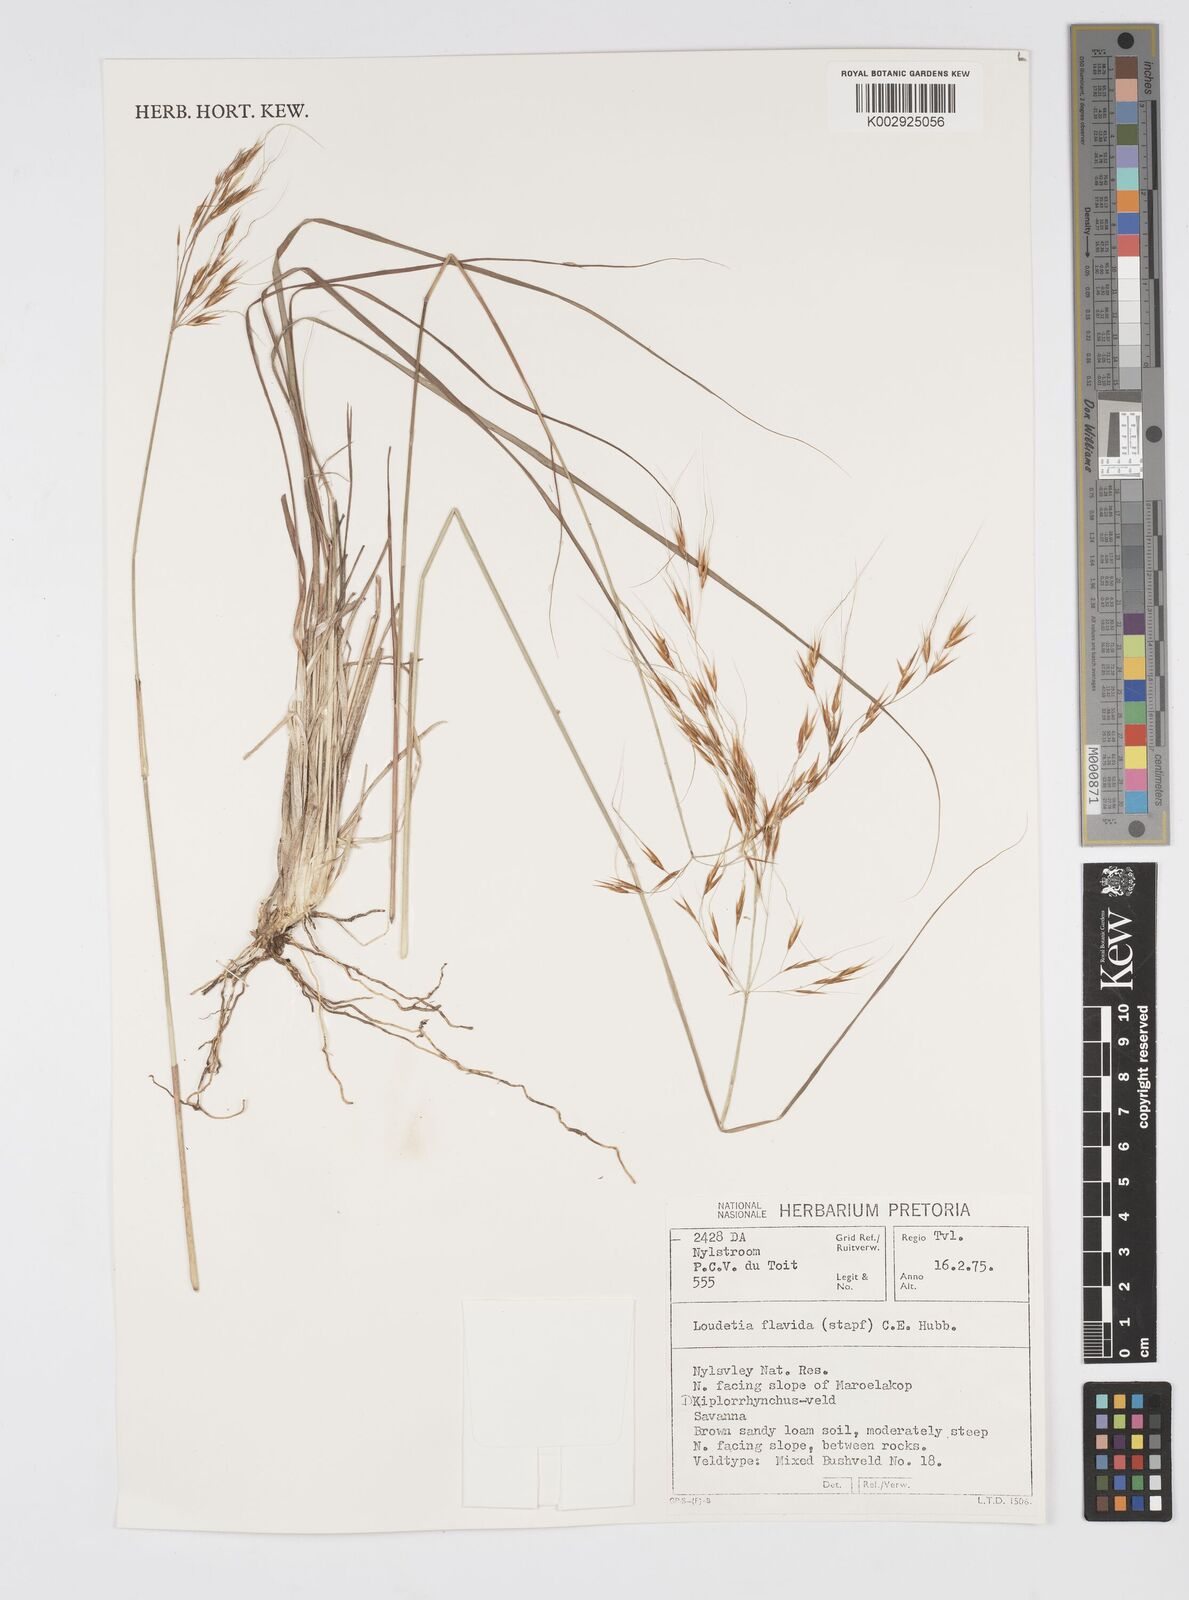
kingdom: Plantae
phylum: Tracheophyta
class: Liliopsida
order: Poales
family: Poaceae
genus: Loudetia
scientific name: Loudetia flavida
